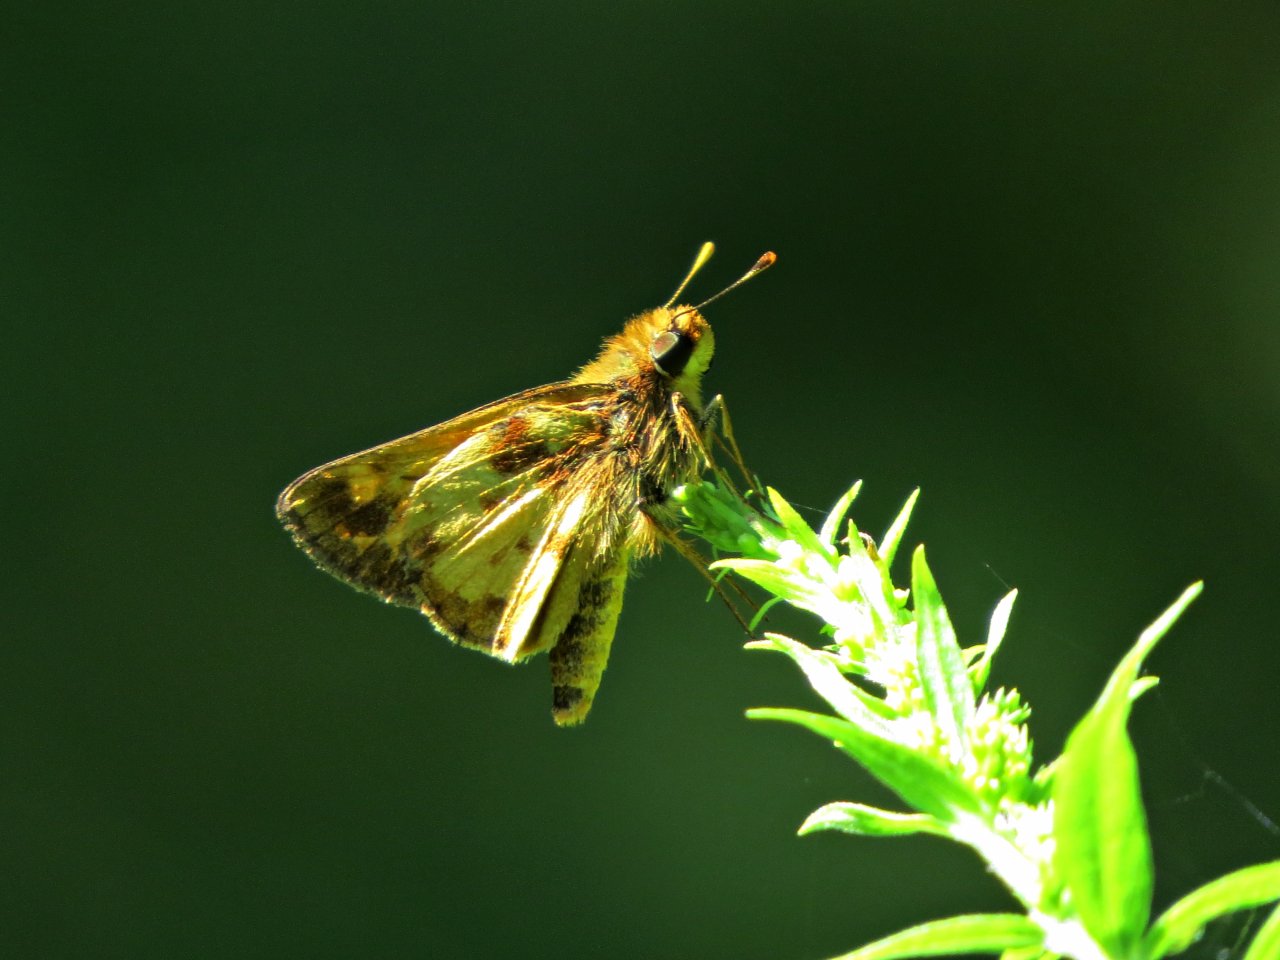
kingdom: Animalia
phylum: Arthropoda
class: Insecta
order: Lepidoptera
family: Hesperiidae
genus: Lon
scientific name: Lon zabulon
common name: Zabulon Skipper
